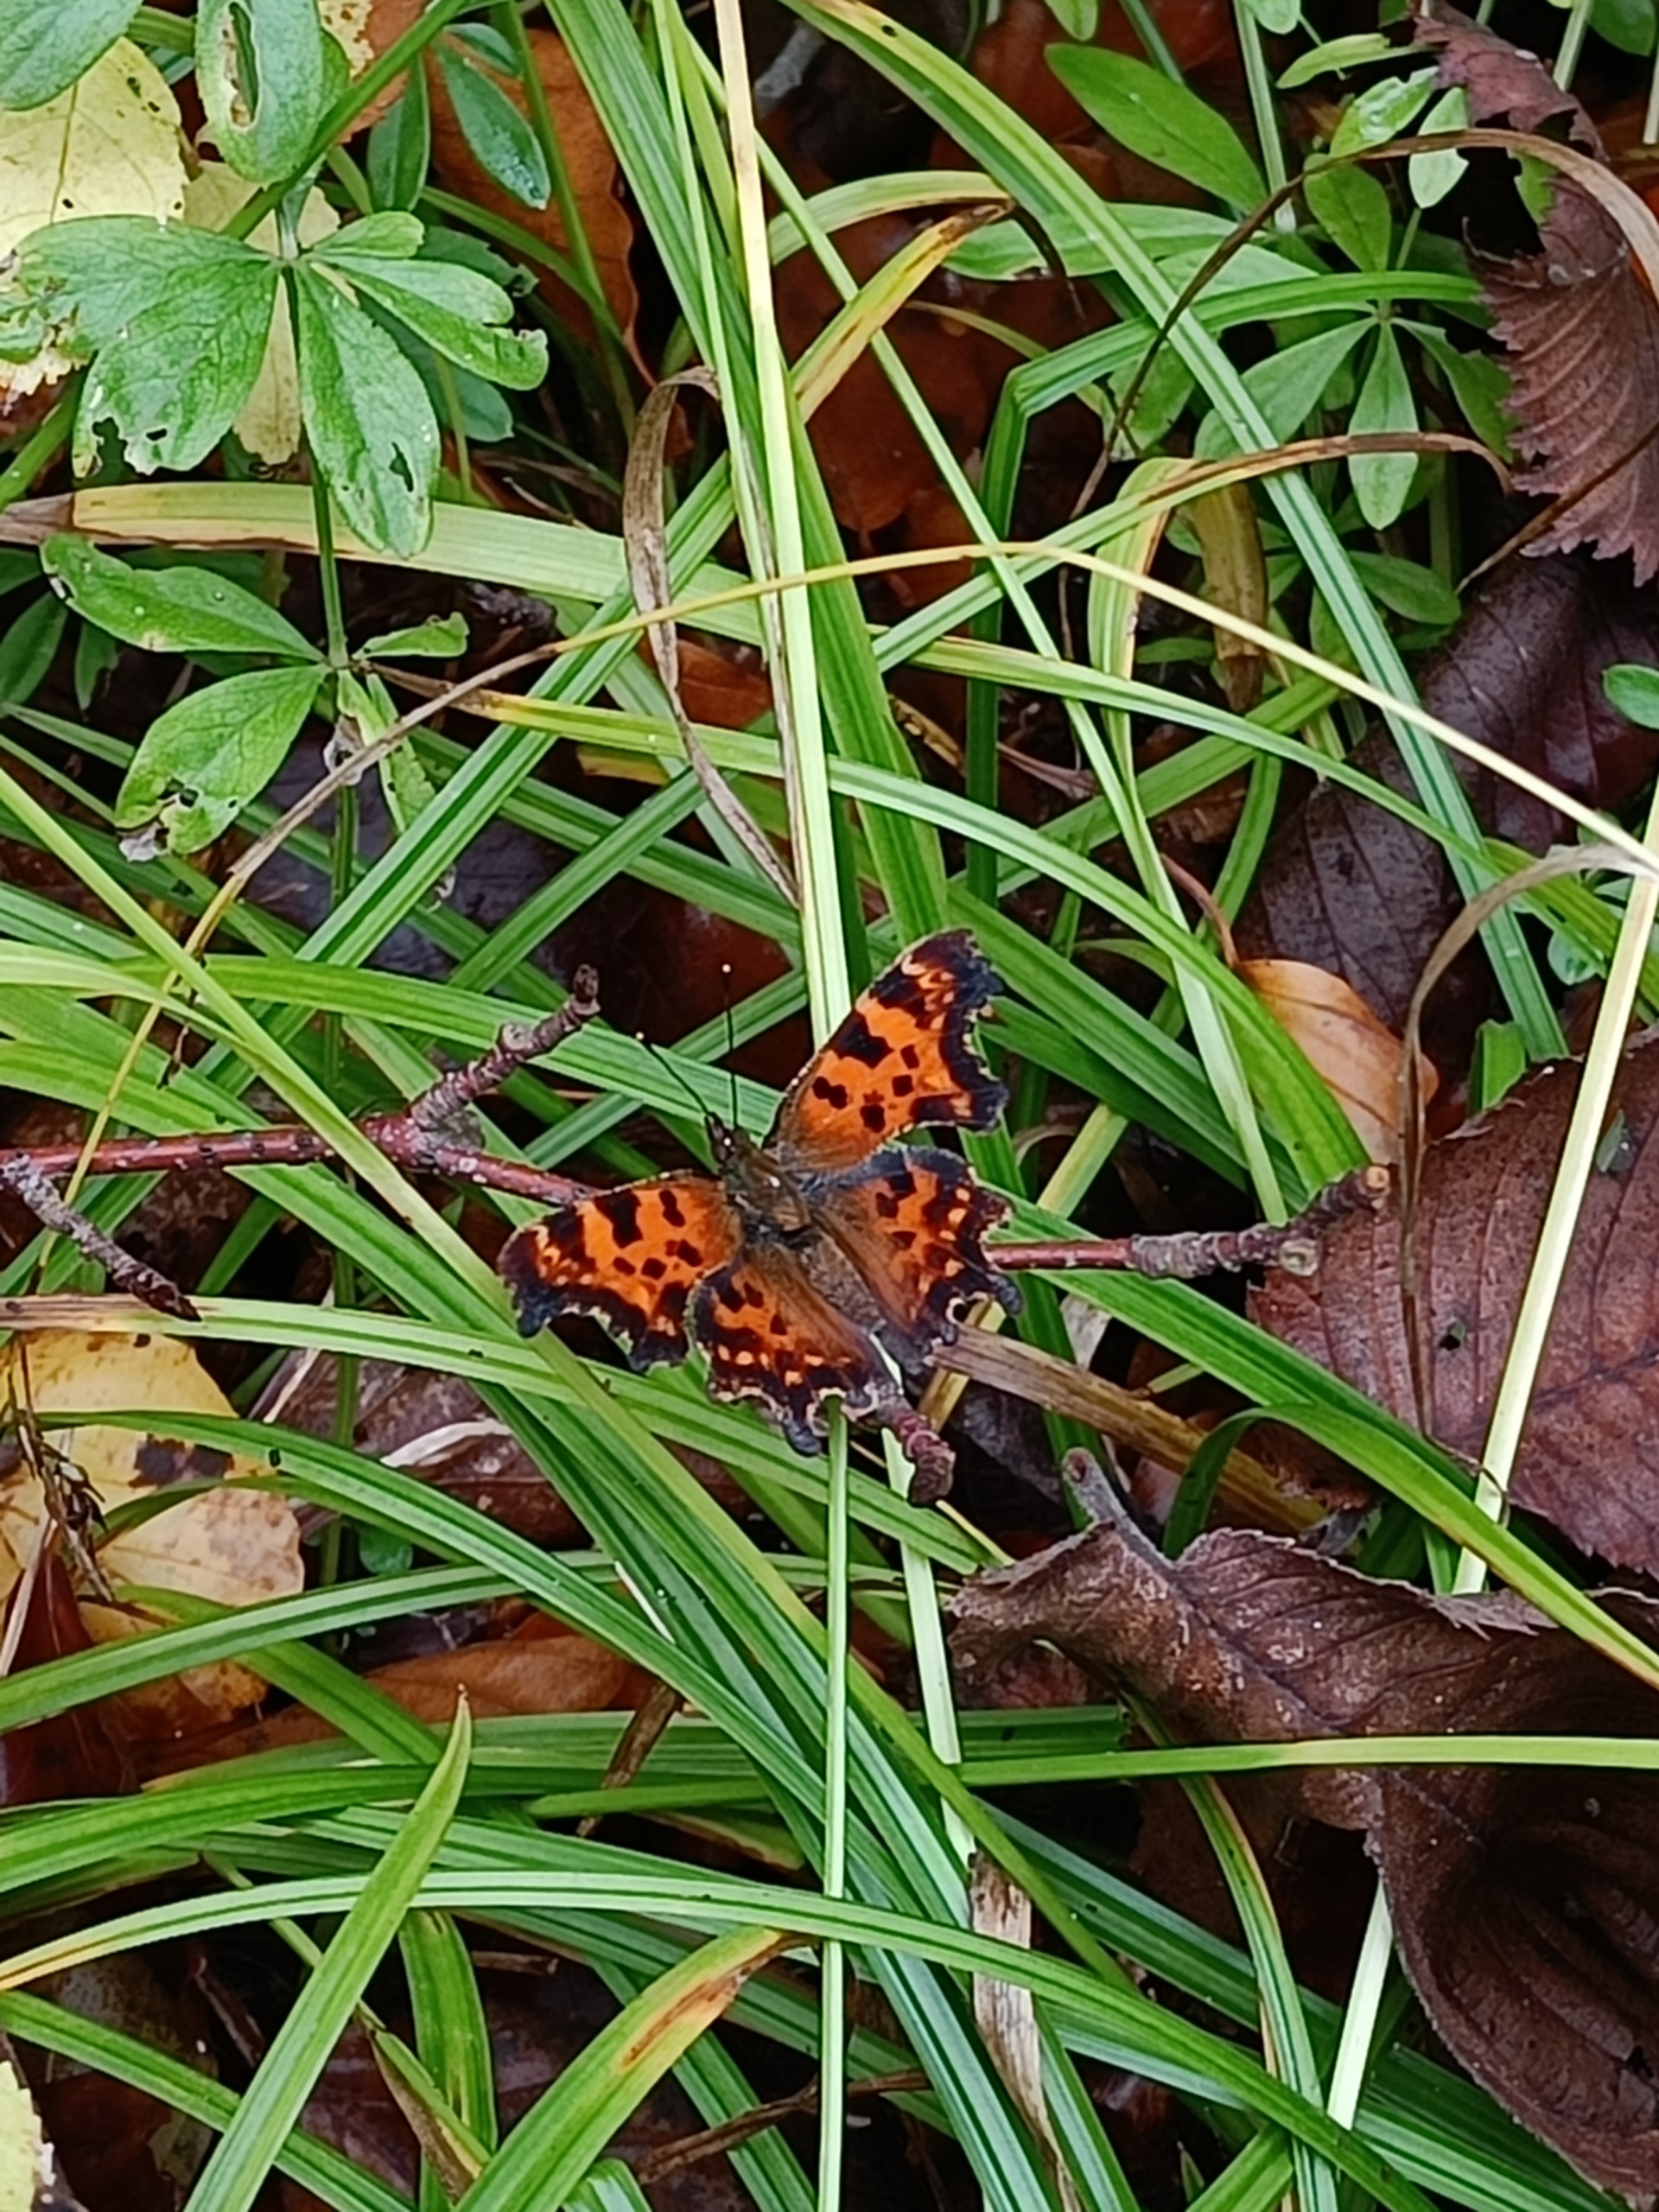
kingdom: Animalia
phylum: Arthropoda
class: Insecta
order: Lepidoptera
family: Nymphalidae
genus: Polygonia
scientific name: Polygonia c-album
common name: Det hvide C
